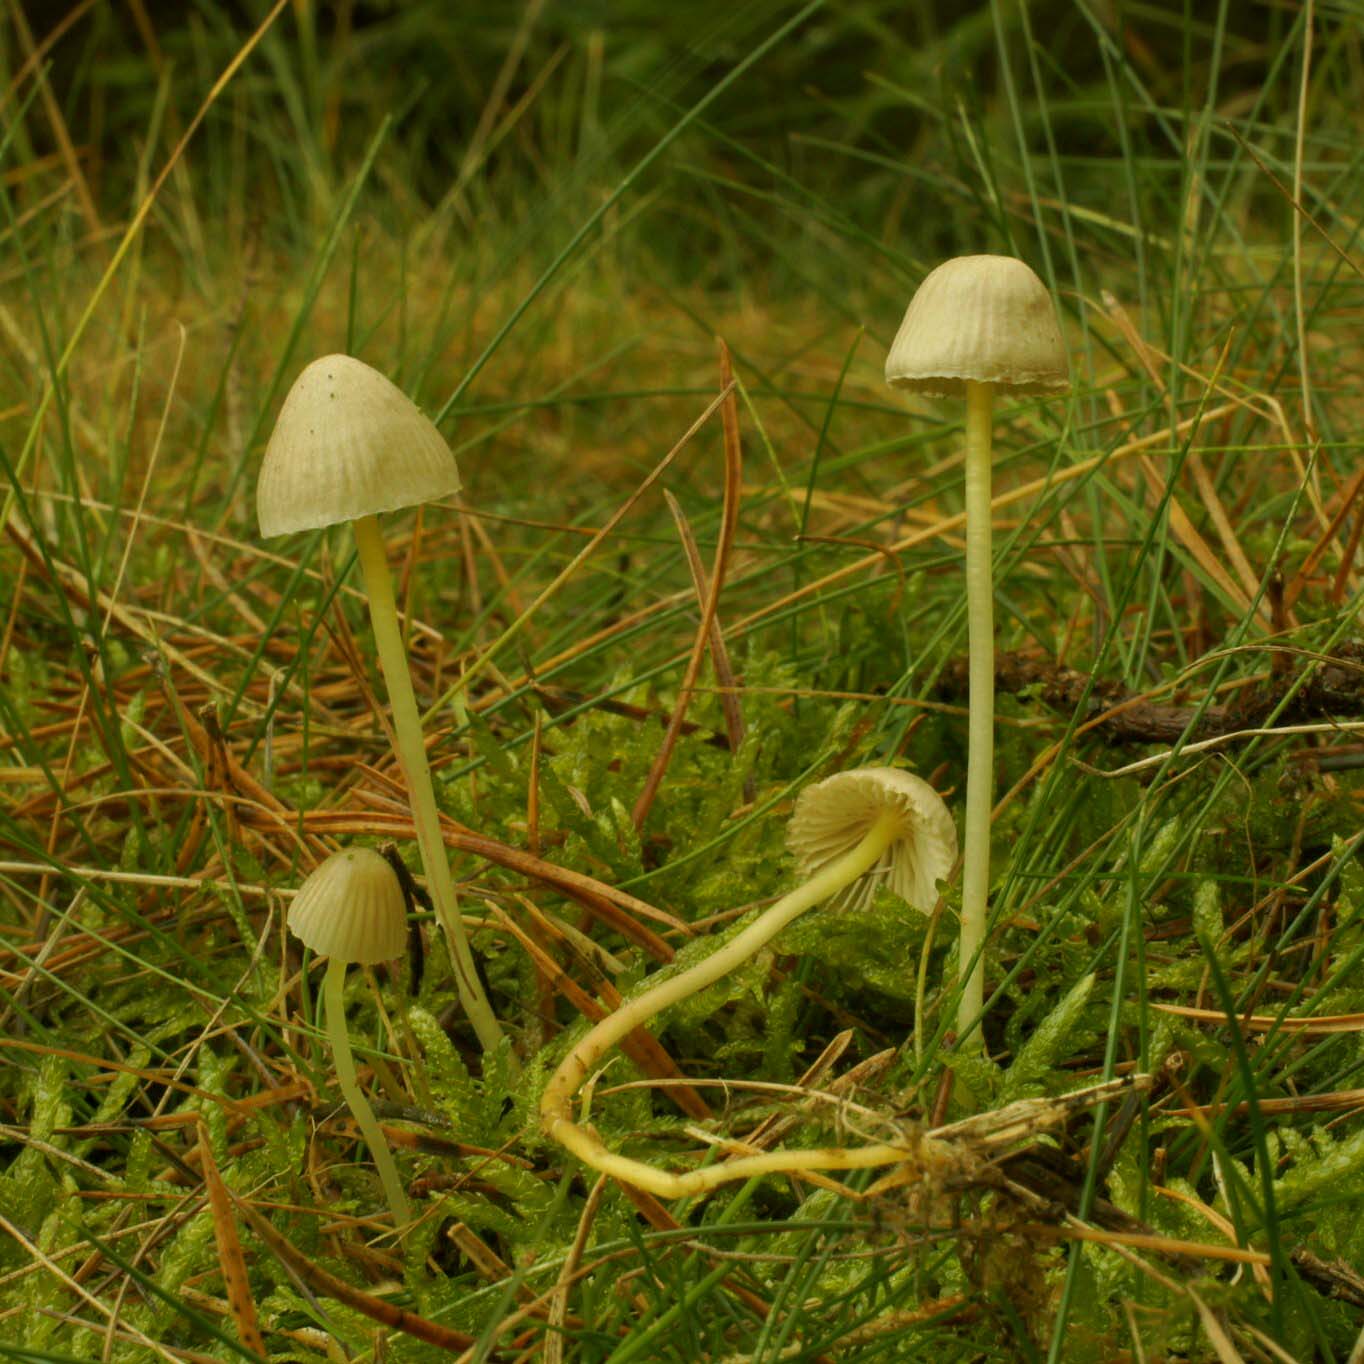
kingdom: Fungi
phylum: Basidiomycota
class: Agaricomycetes
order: Agaricales
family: Mycenaceae
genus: Mycena
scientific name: Mycena epipterygia
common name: gulstokket huesvamp
